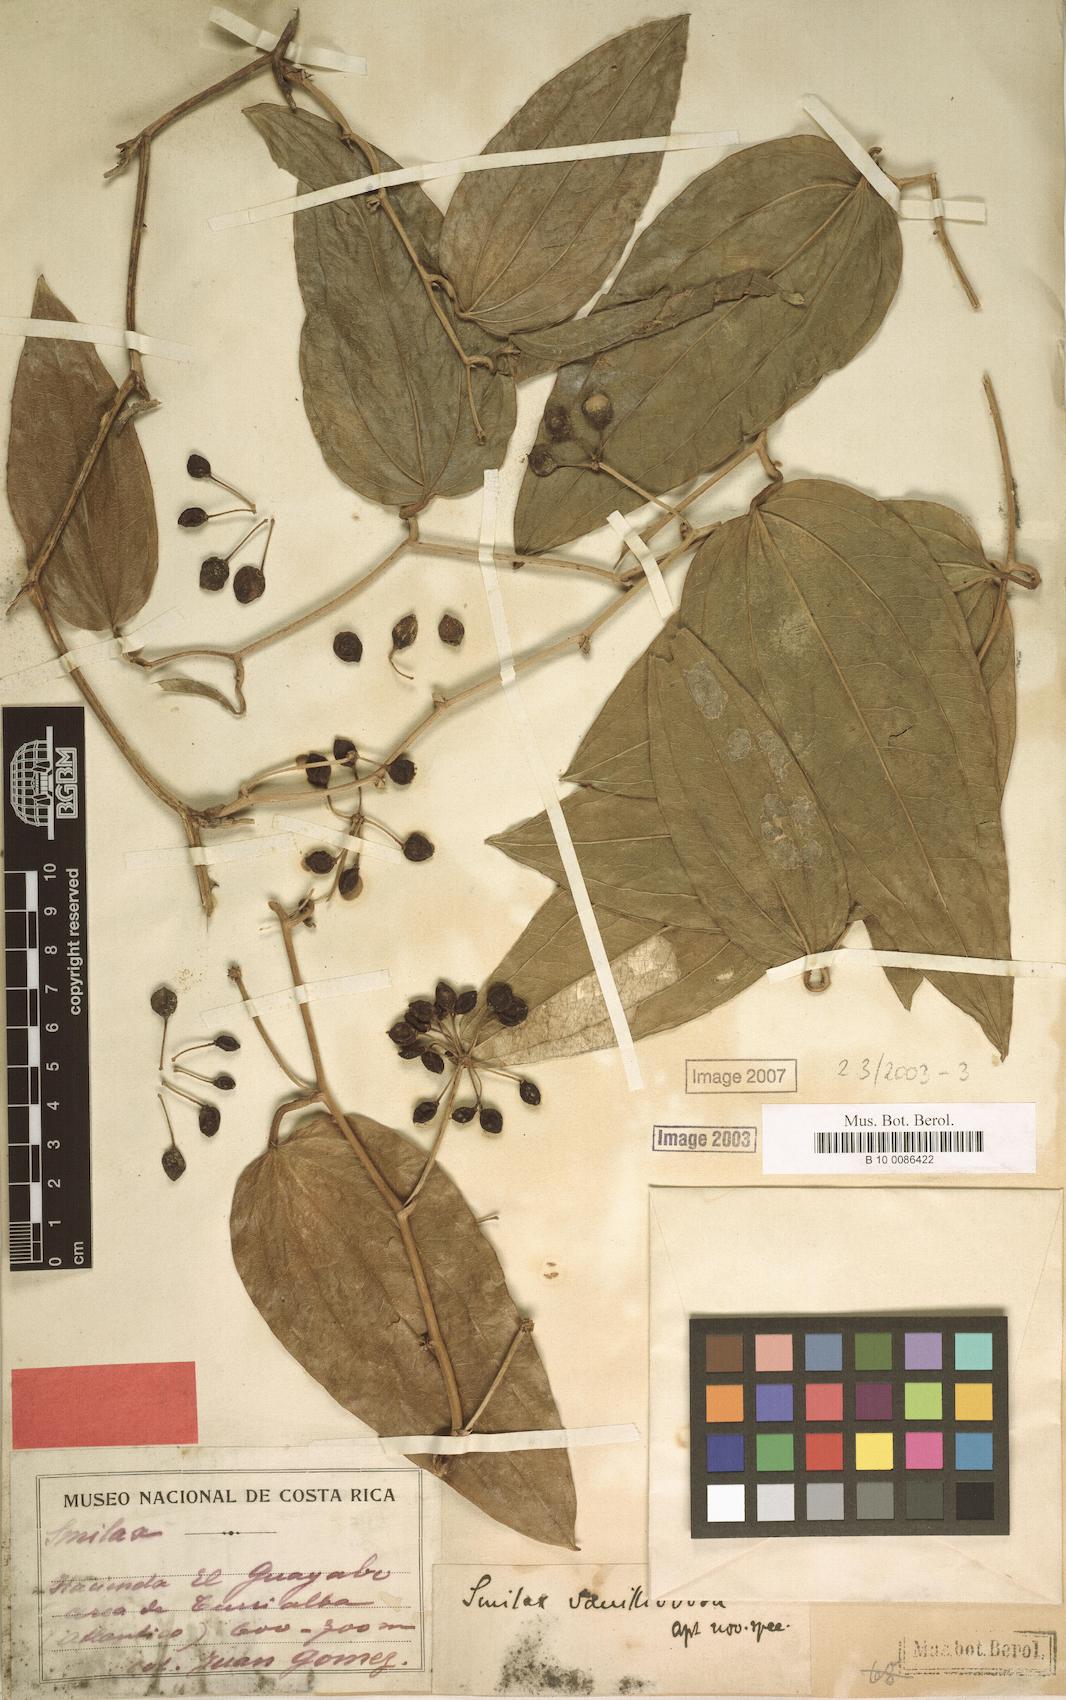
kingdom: Plantae
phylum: Tracheophyta
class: Liliopsida
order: Liliales
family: Smilacaceae
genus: Smilax
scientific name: Smilax officinalis
